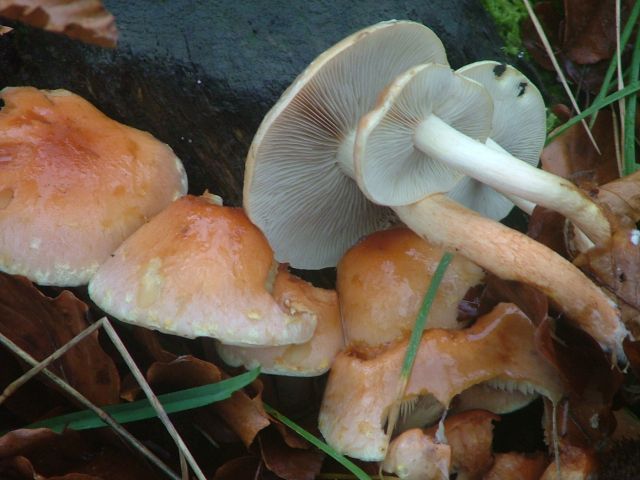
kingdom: Fungi
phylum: Basidiomycota
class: Agaricomycetes
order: Agaricales
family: Strophariaceae
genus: Hypholoma
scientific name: Hypholoma lateritium
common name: teglrød svovlhat
